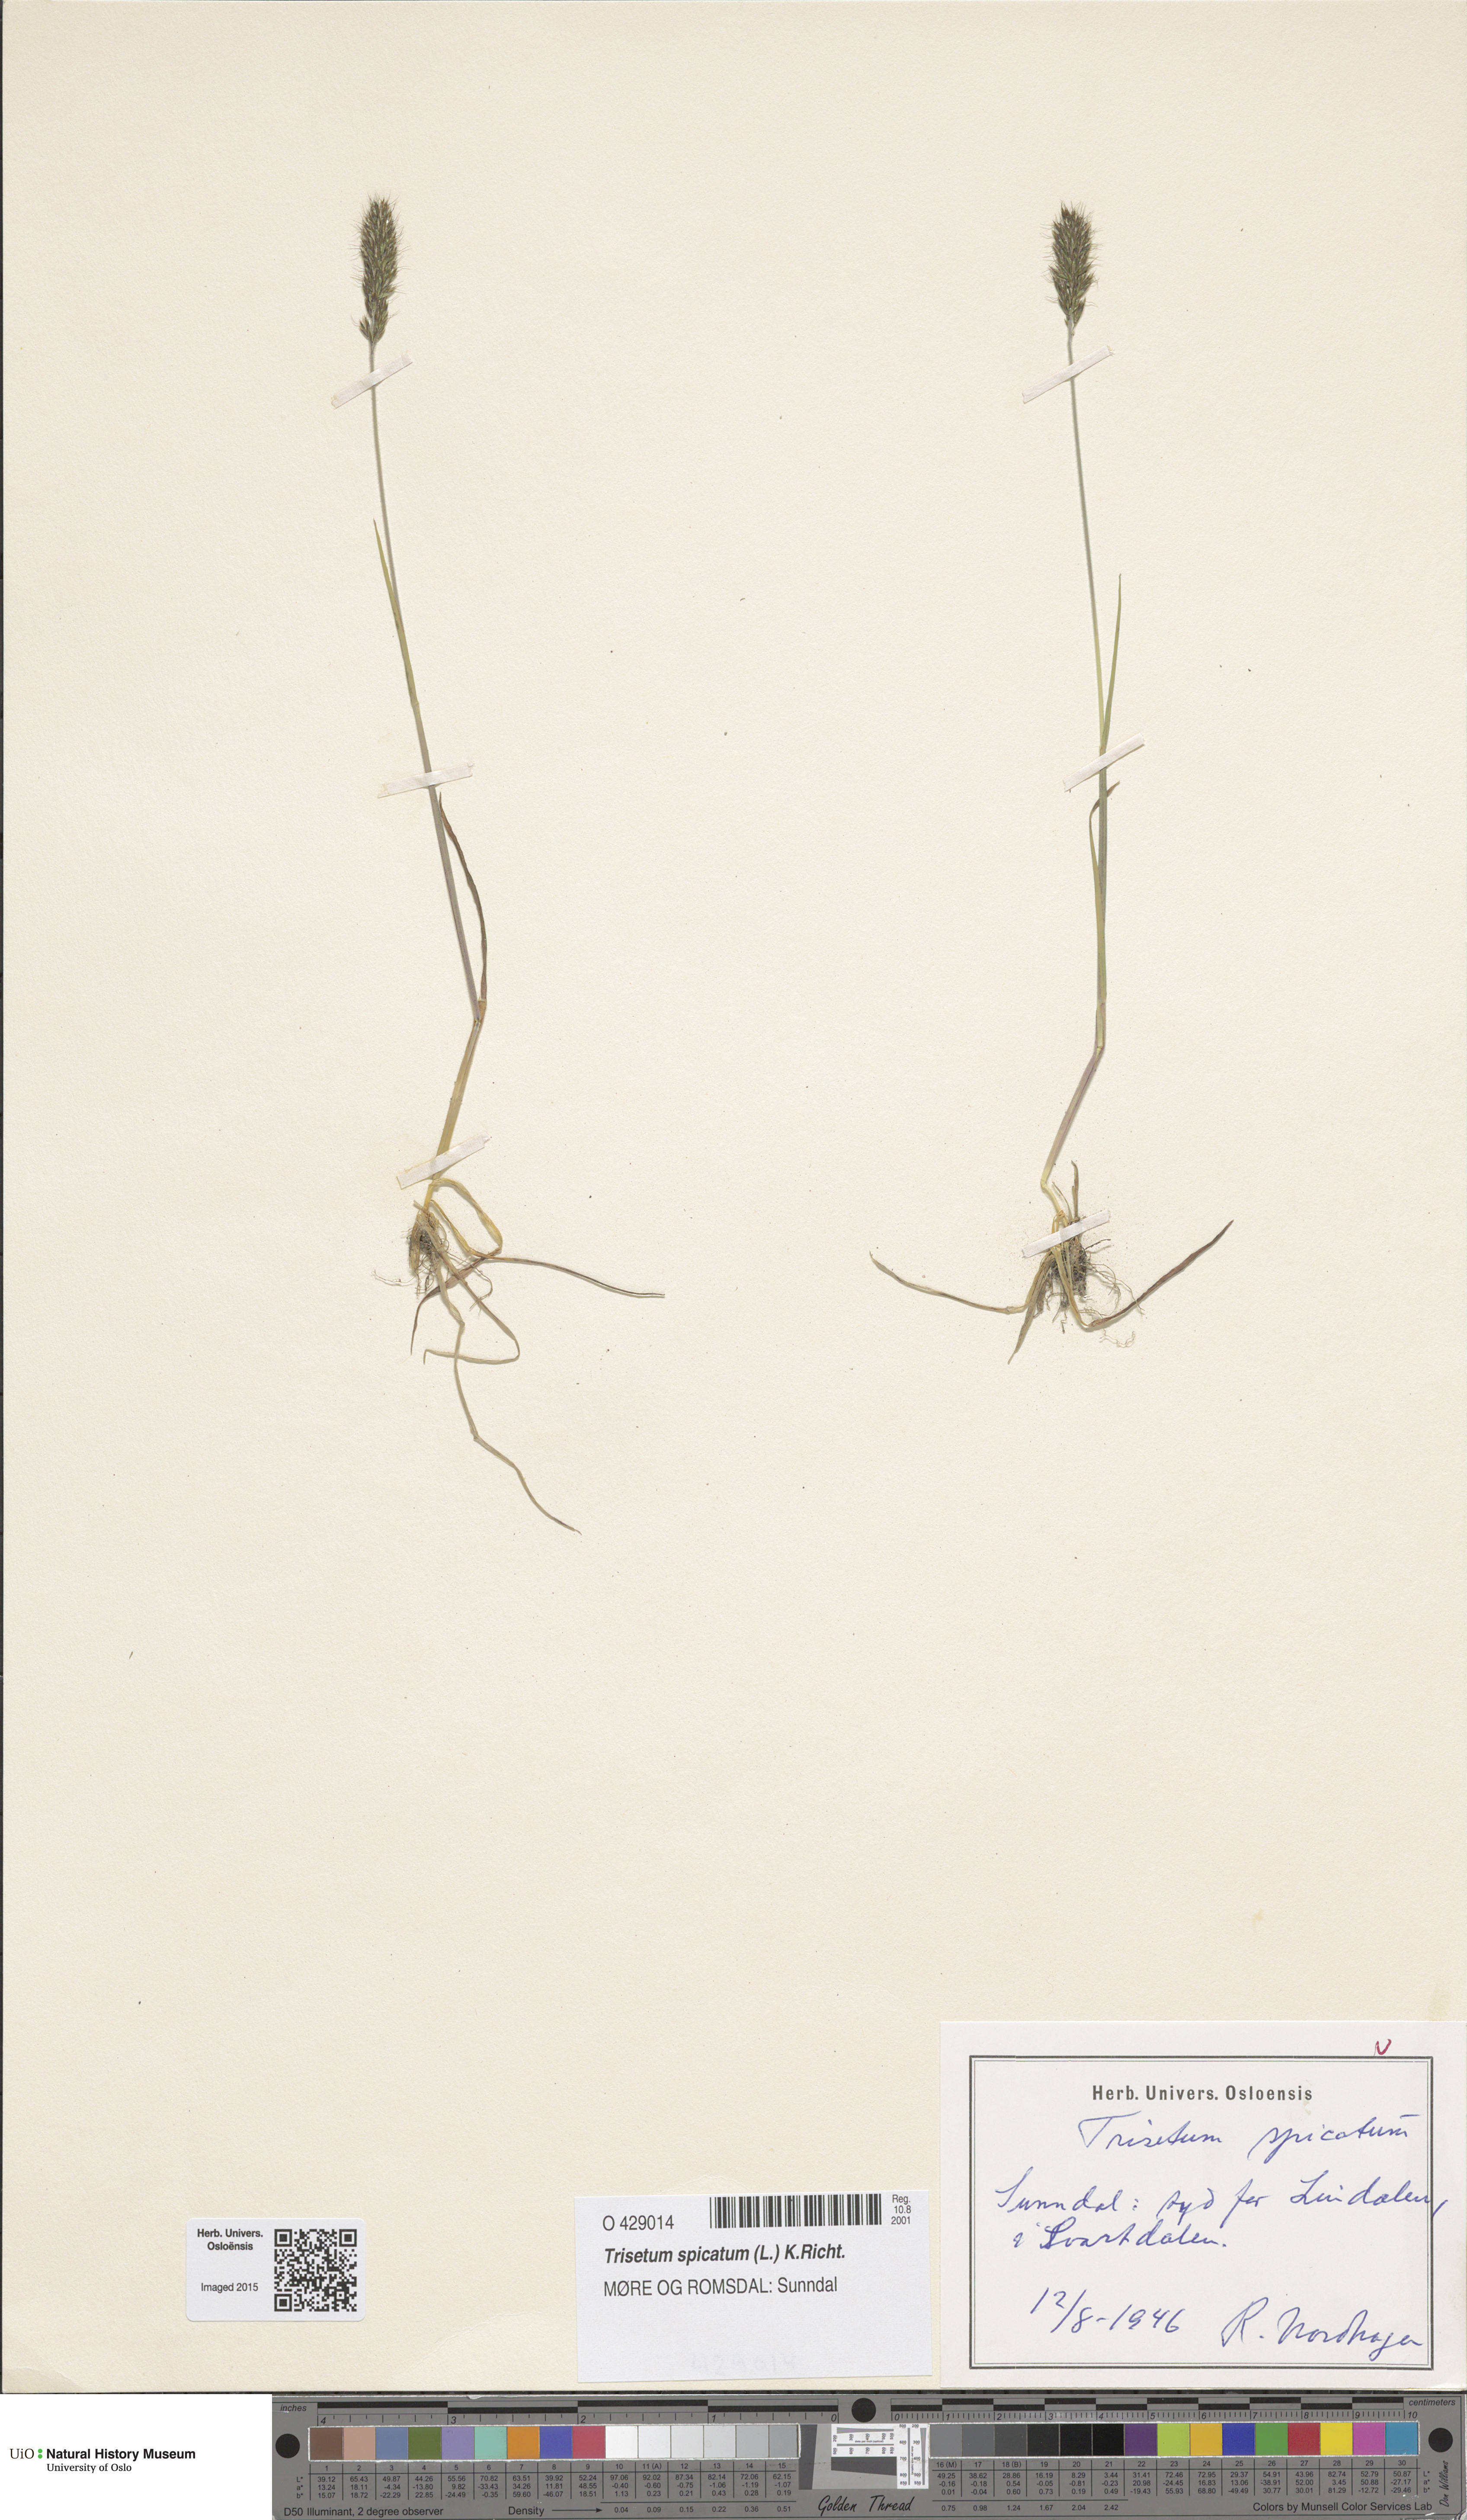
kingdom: Plantae
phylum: Tracheophyta
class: Liliopsida
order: Poales
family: Poaceae
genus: Koeleria
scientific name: Koeleria spicata
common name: Mountain trisetum
